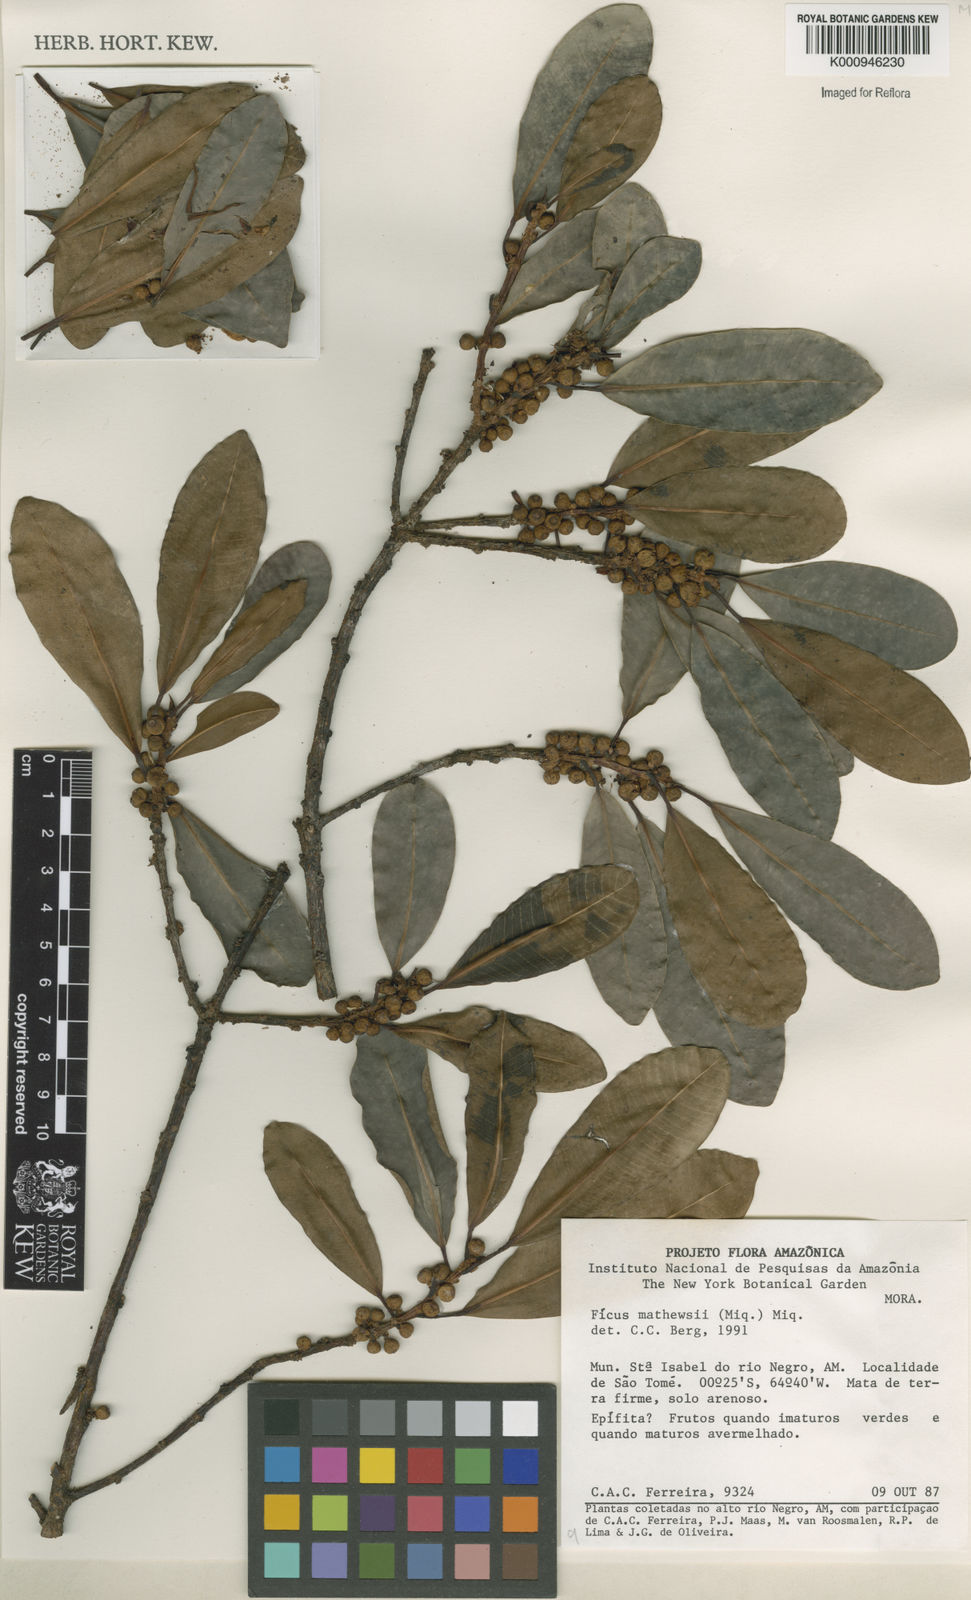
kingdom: Plantae
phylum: Tracheophyta
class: Magnoliopsida
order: Rosales
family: Moraceae
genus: Ficus
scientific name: Ficus mathewsii
